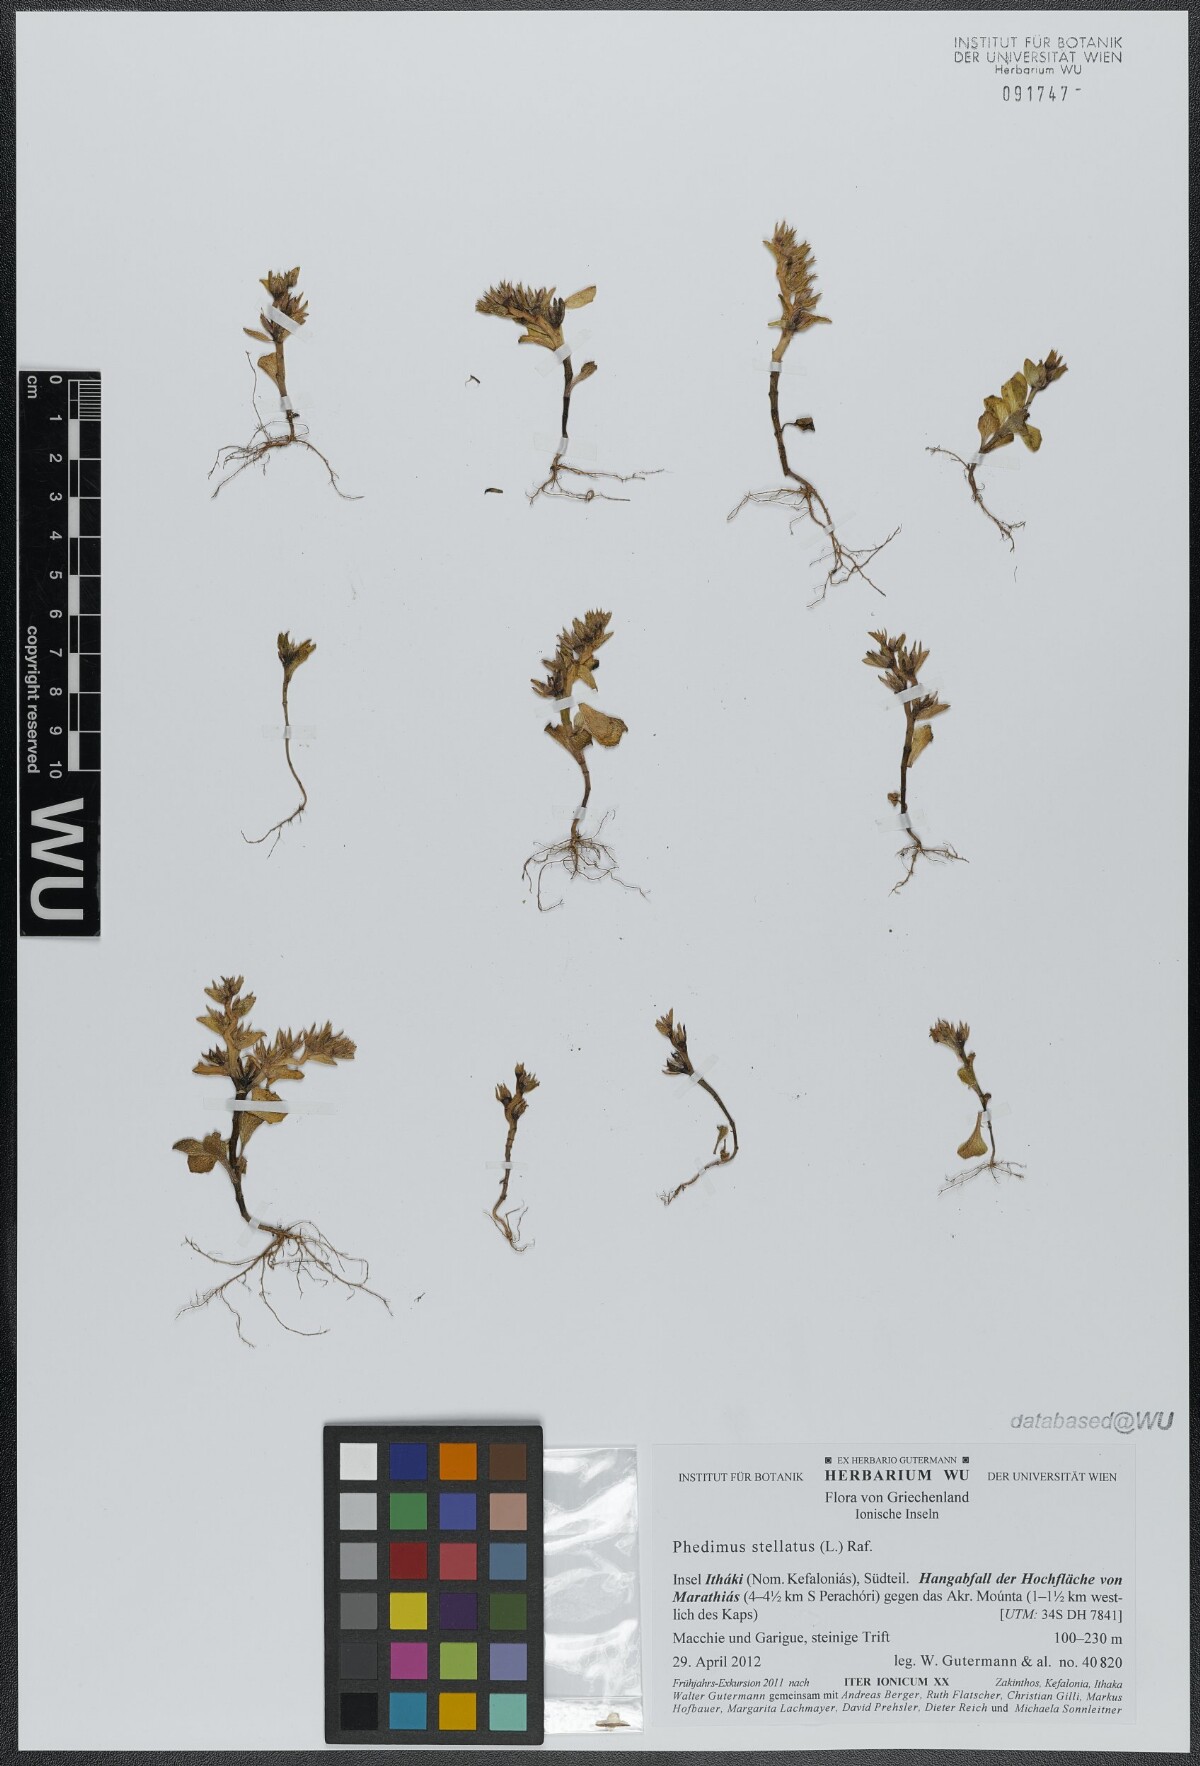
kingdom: Plantae
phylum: Tracheophyta
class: Magnoliopsida
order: Saxifragales
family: Crassulaceae
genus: Phedimus
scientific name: Phedimus stellatus
